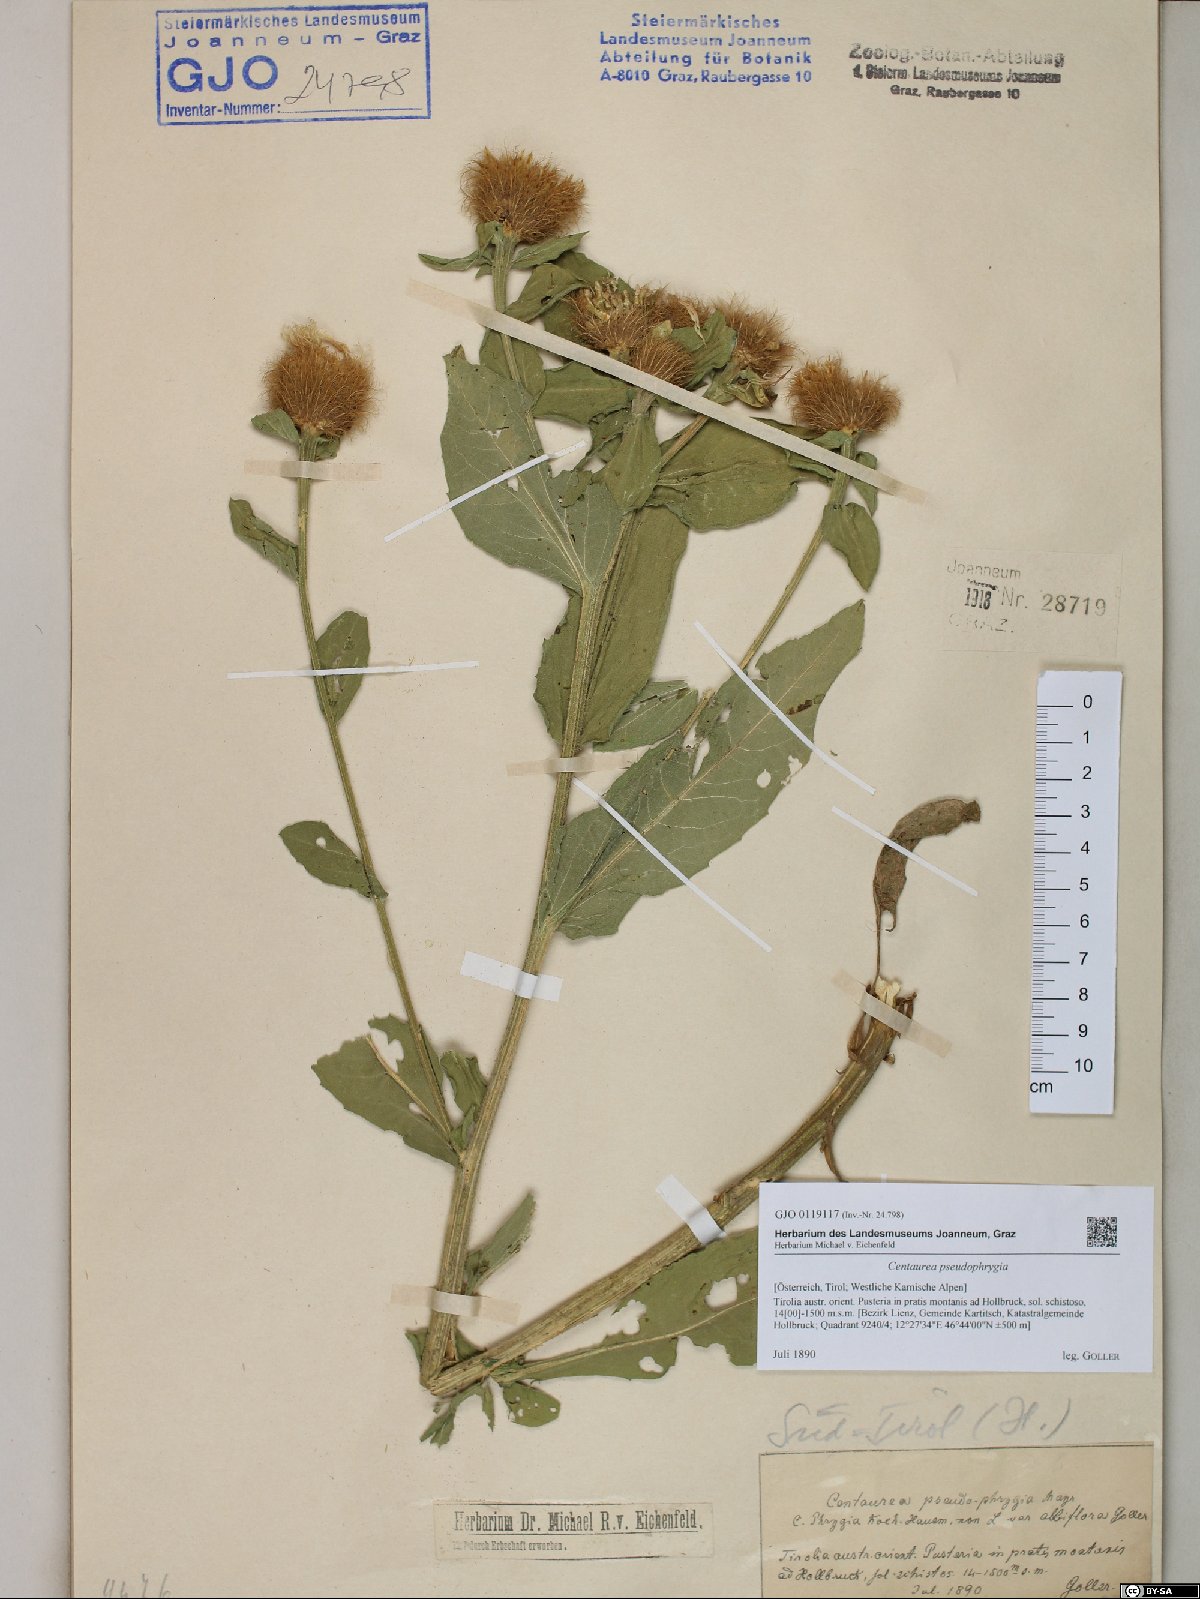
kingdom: Plantae
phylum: Tracheophyta
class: Magnoliopsida
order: Asterales
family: Asteraceae
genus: Centaurea
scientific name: Centaurea pseudophrygia
